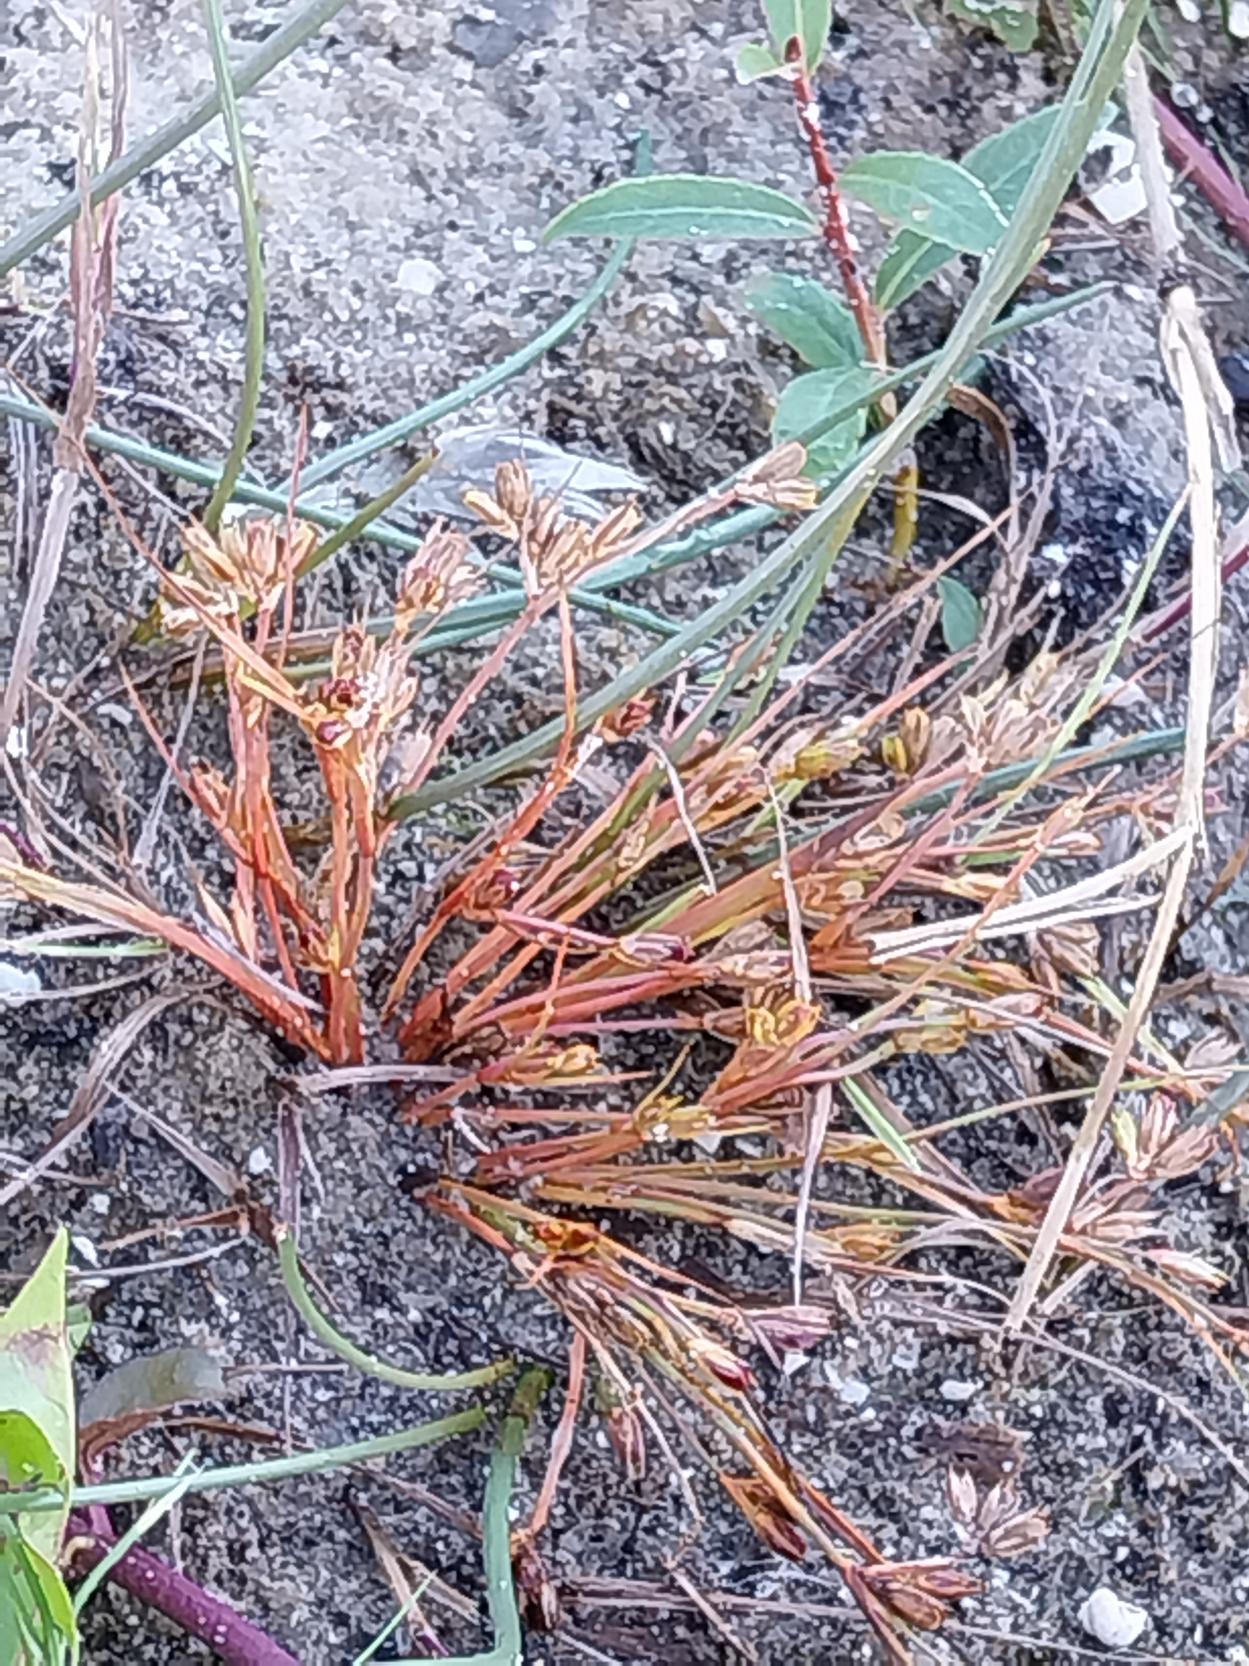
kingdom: Plantae
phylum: Tracheophyta
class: Liliopsida
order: Poales
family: Juncaceae
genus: Juncus
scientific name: Juncus ranarius
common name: Klæg-siv
